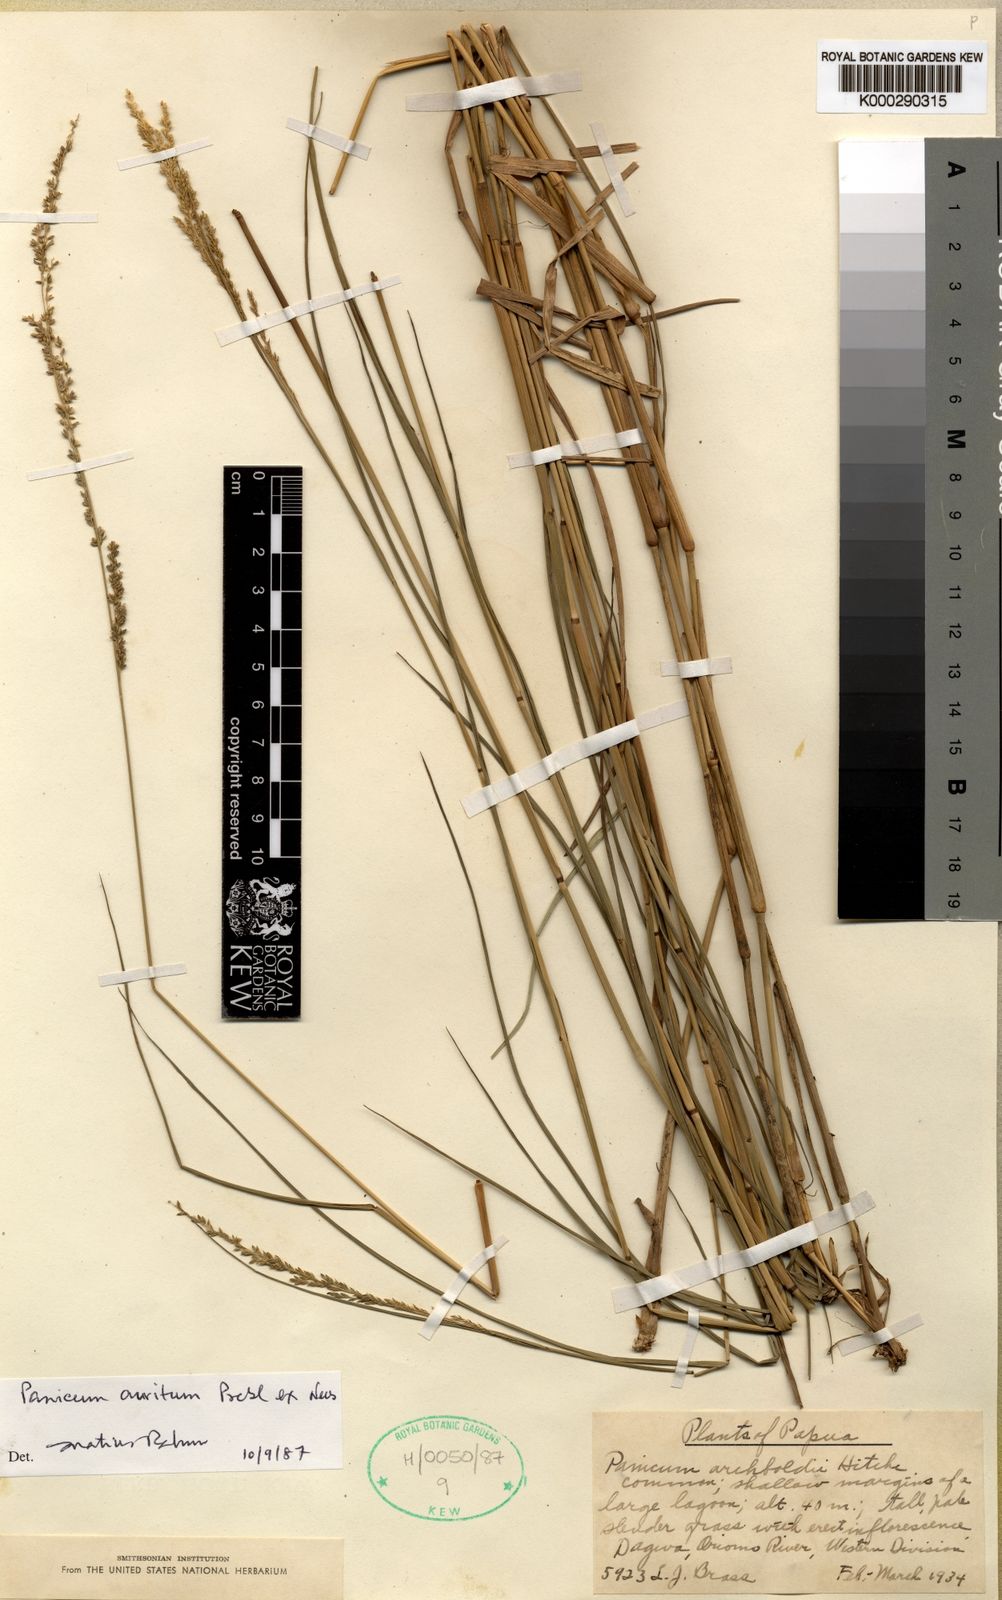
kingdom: Plantae
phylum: Tracheophyta
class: Liliopsida
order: Poales
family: Poaceae
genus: Hymenachne
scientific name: Hymenachne aurita
